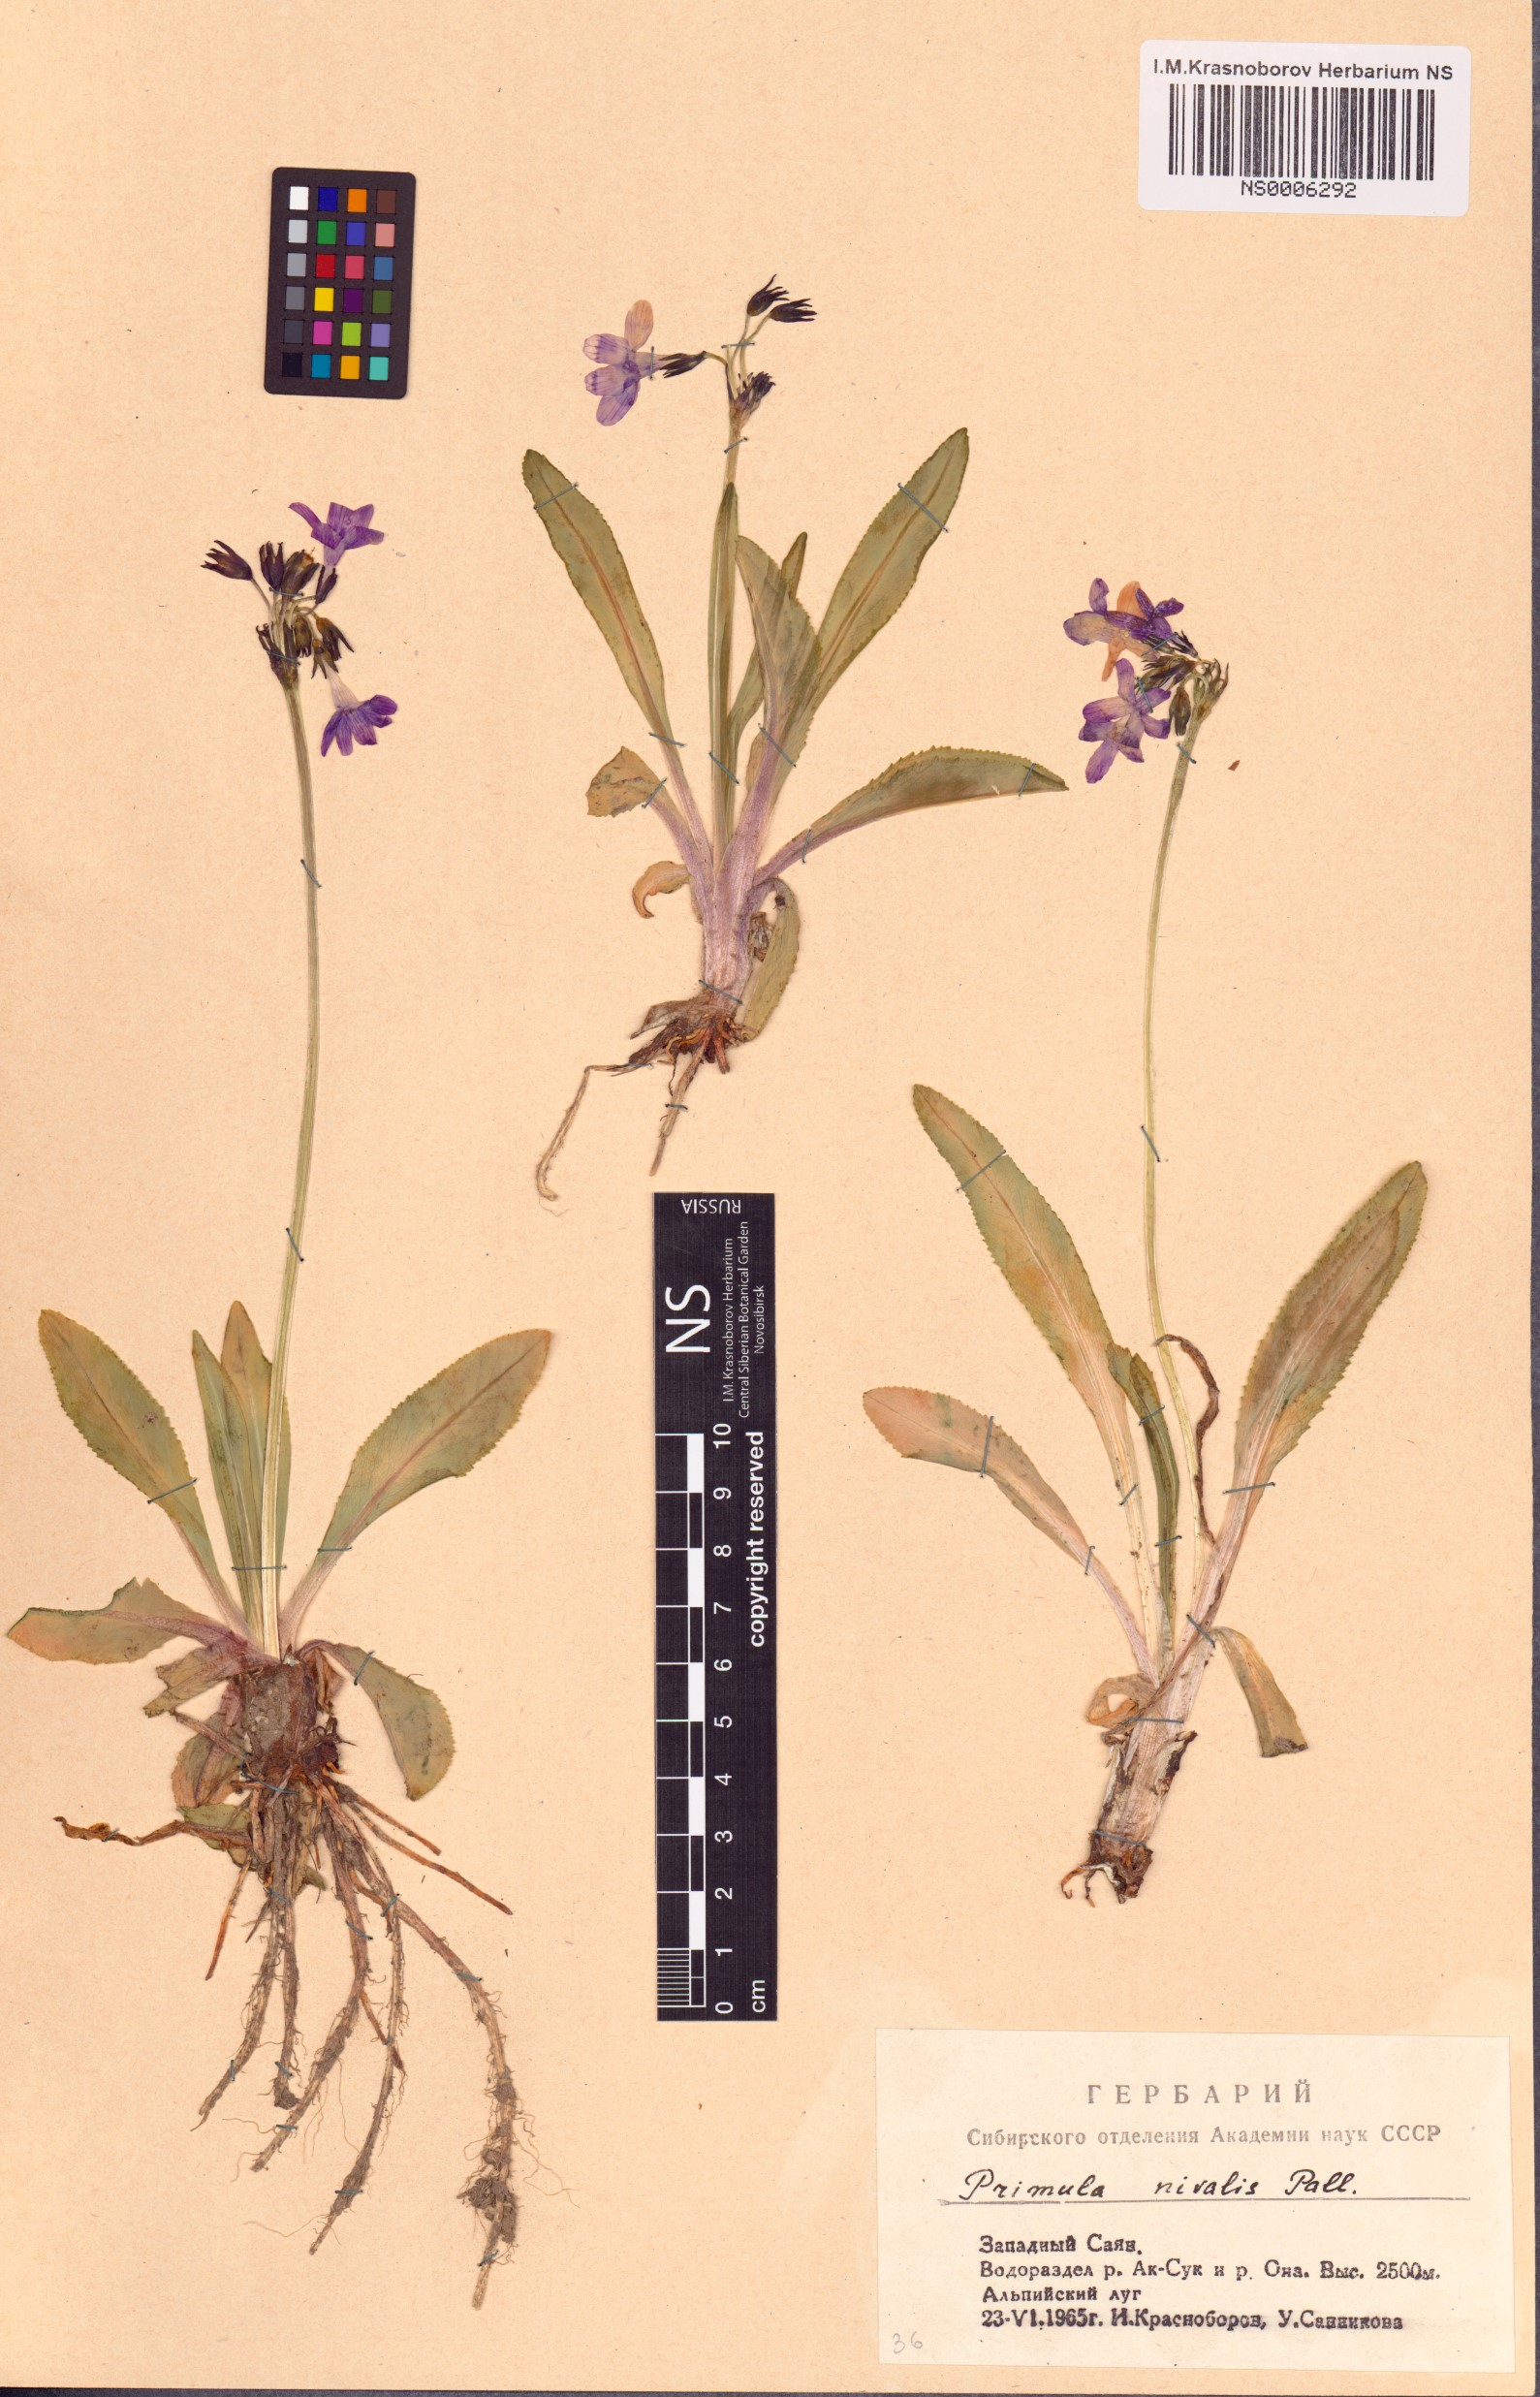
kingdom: Plantae
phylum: Tracheophyta
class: Magnoliopsida
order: Ericales
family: Primulaceae
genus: Primula
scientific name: Primula nivalis
